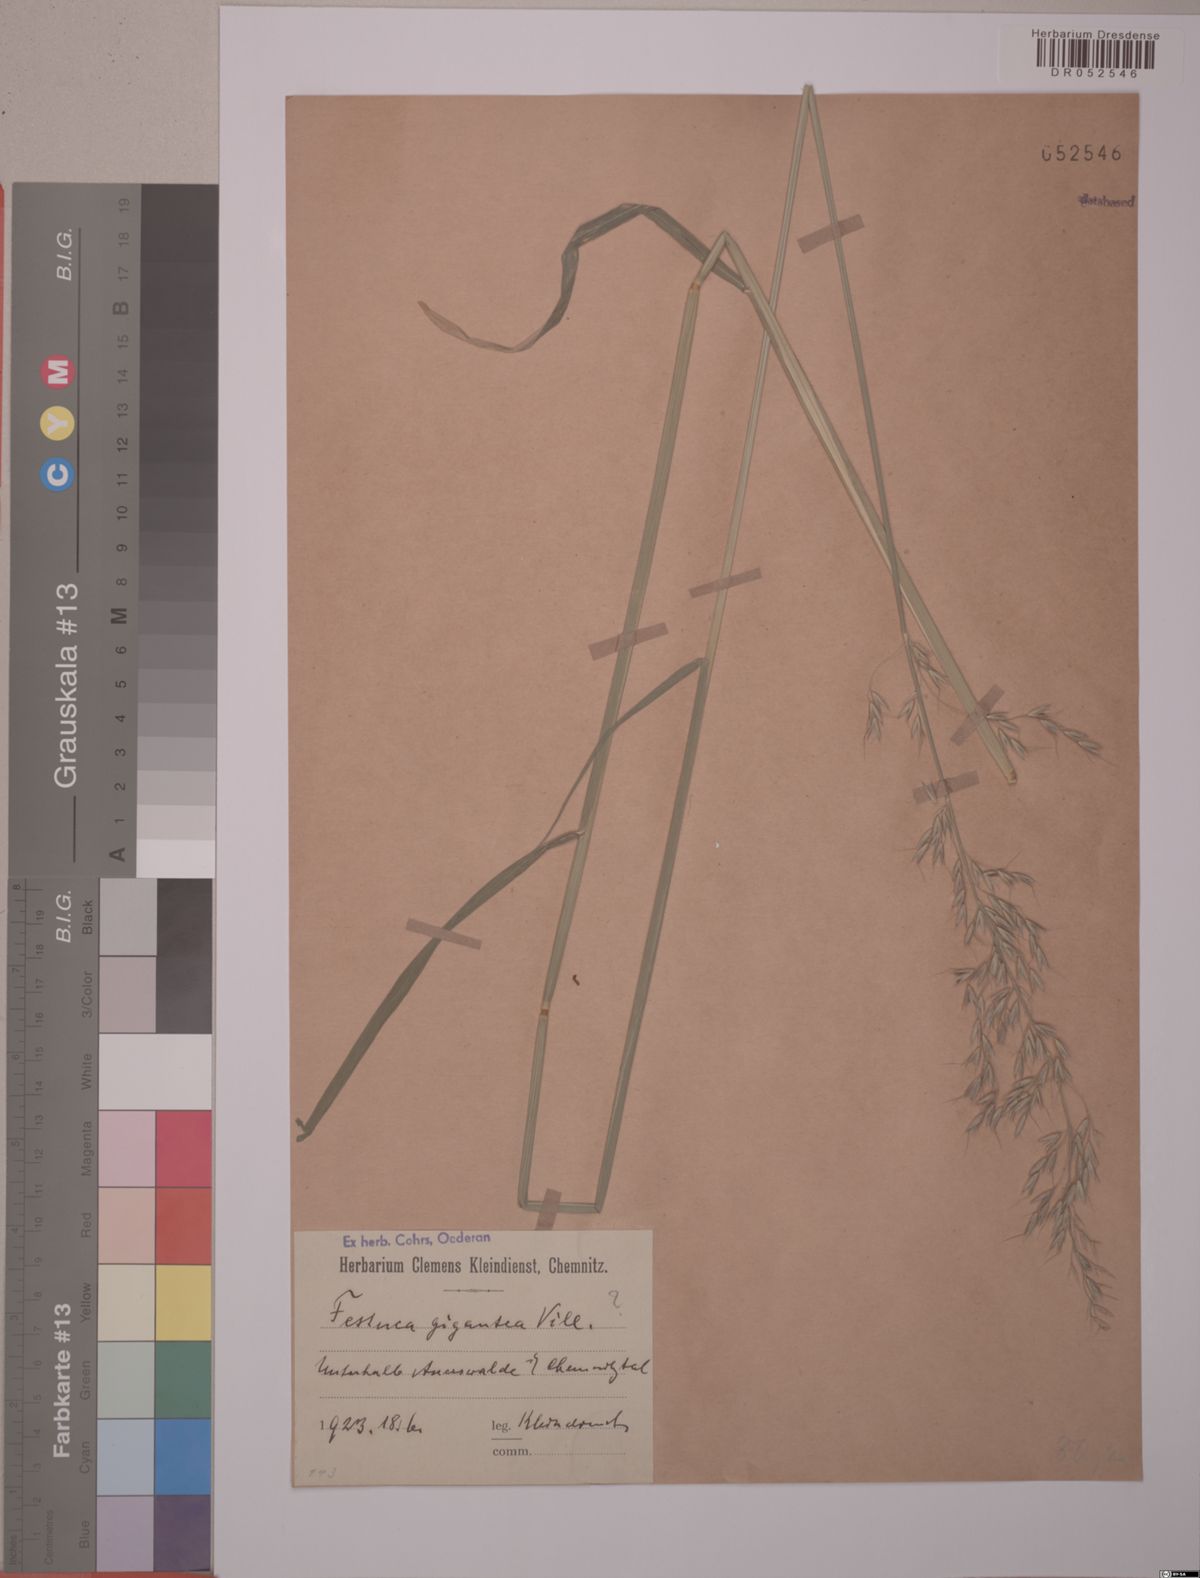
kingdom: Plantae
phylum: Tracheophyta
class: Liliopsida
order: Poales
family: Poaceae
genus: Lolium
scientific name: Lolium giganteum
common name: Giant fescue
